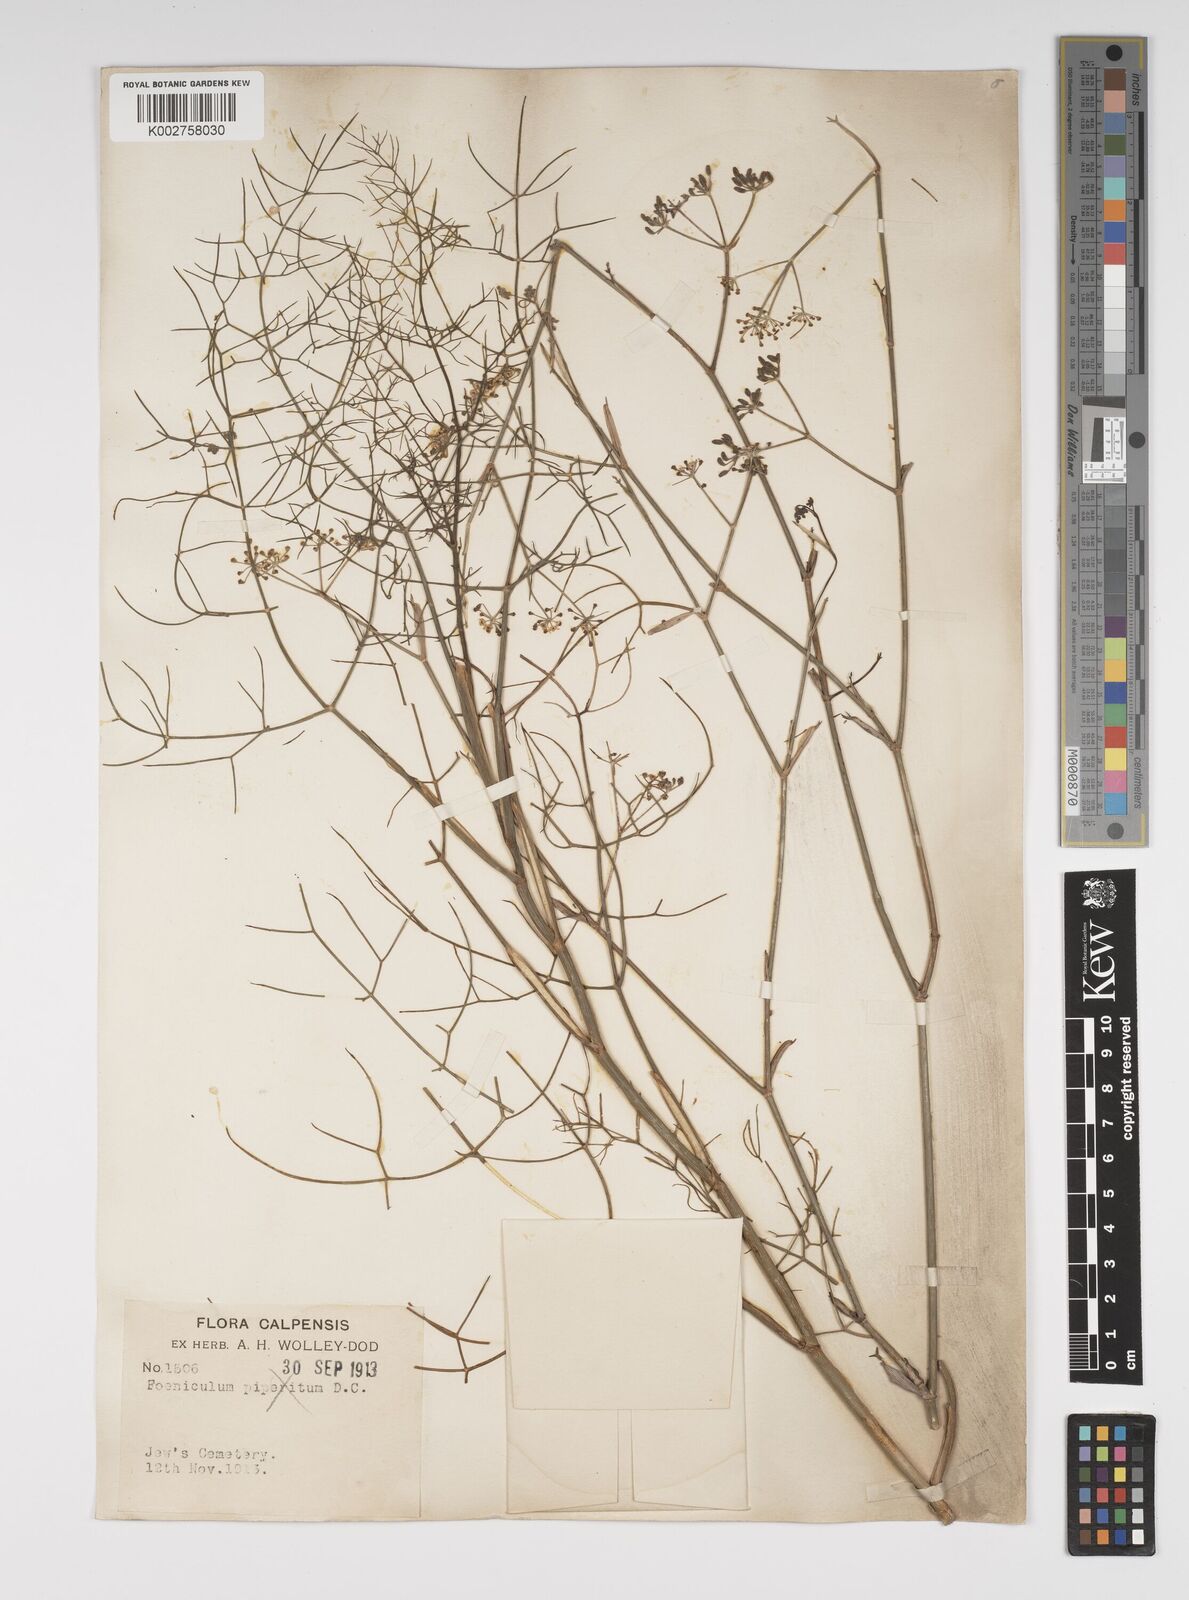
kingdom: Plantae
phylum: Tracheophyta
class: Magnoliopsida
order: Apiales
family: Apiaceae
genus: Foeniculum
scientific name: Foeniculum vulgare
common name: Fennel
